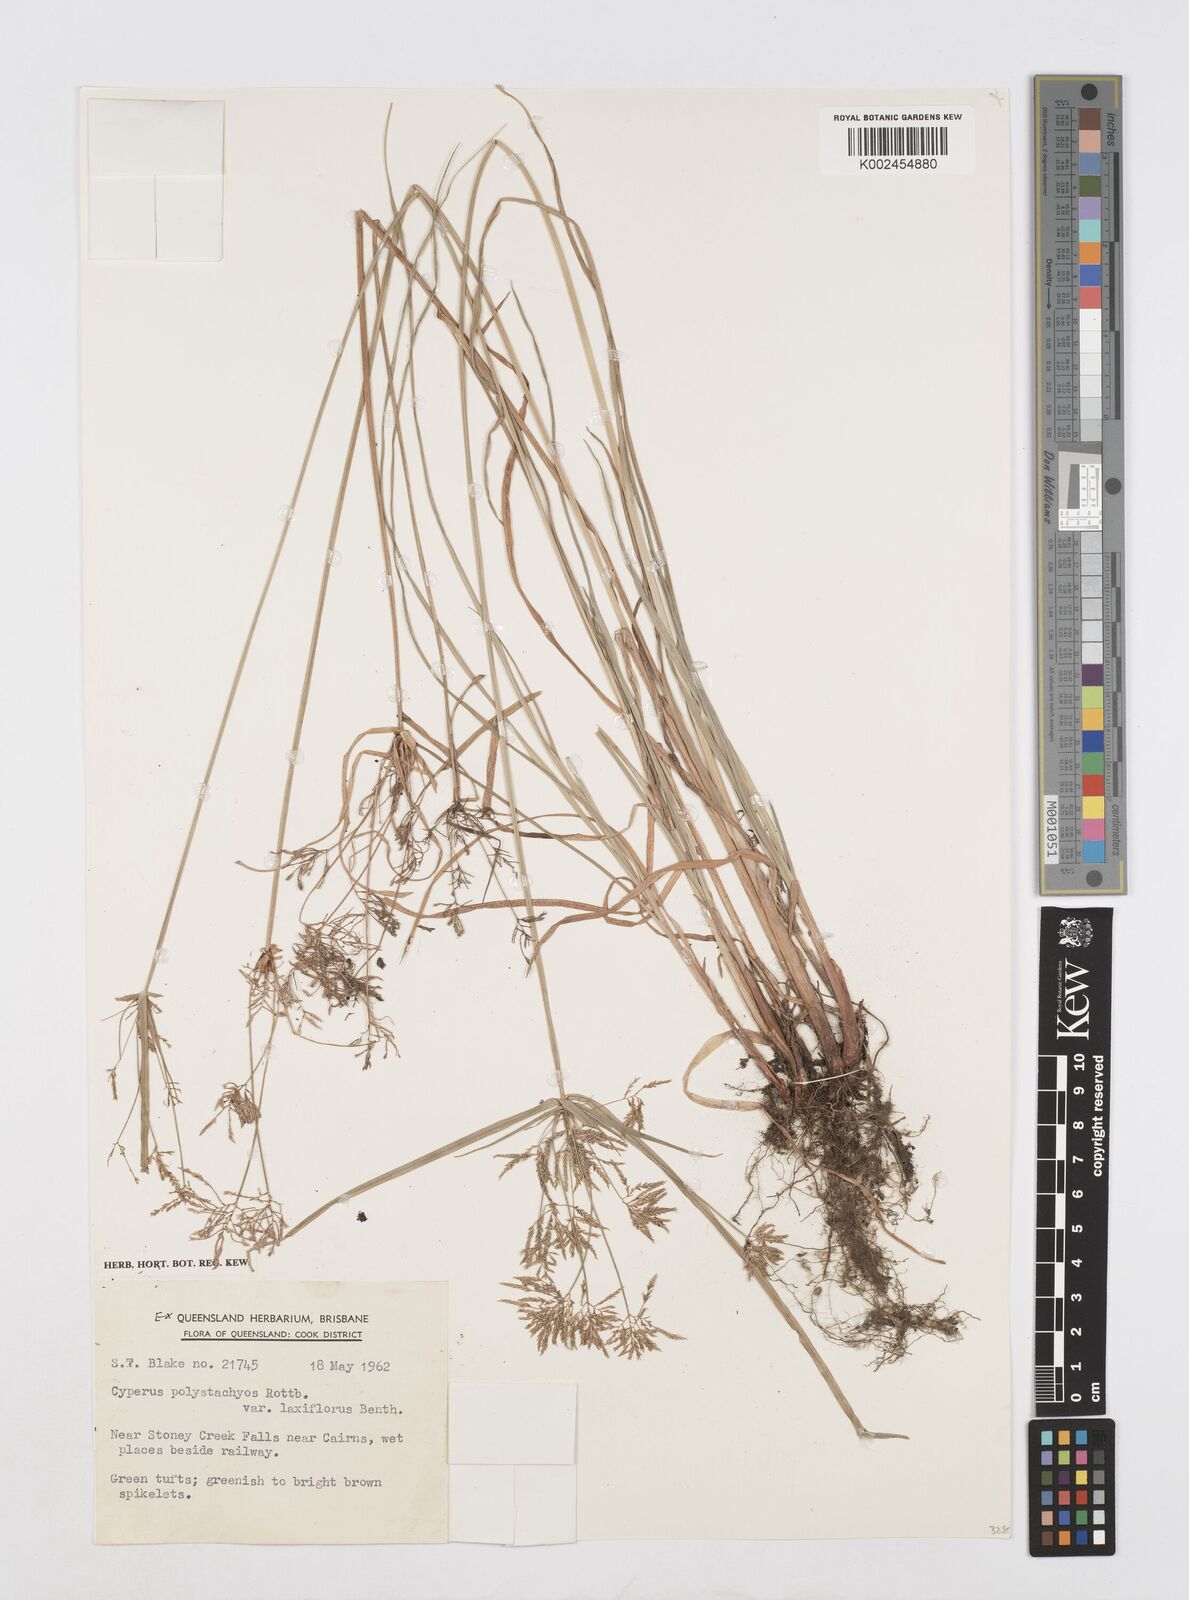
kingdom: Plantae
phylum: Tracheophyta
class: Liliopsida
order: Poales
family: Cyperaceae
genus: Cyperus
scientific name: Cyperus polystachyos
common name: Bunchy flat sedge
